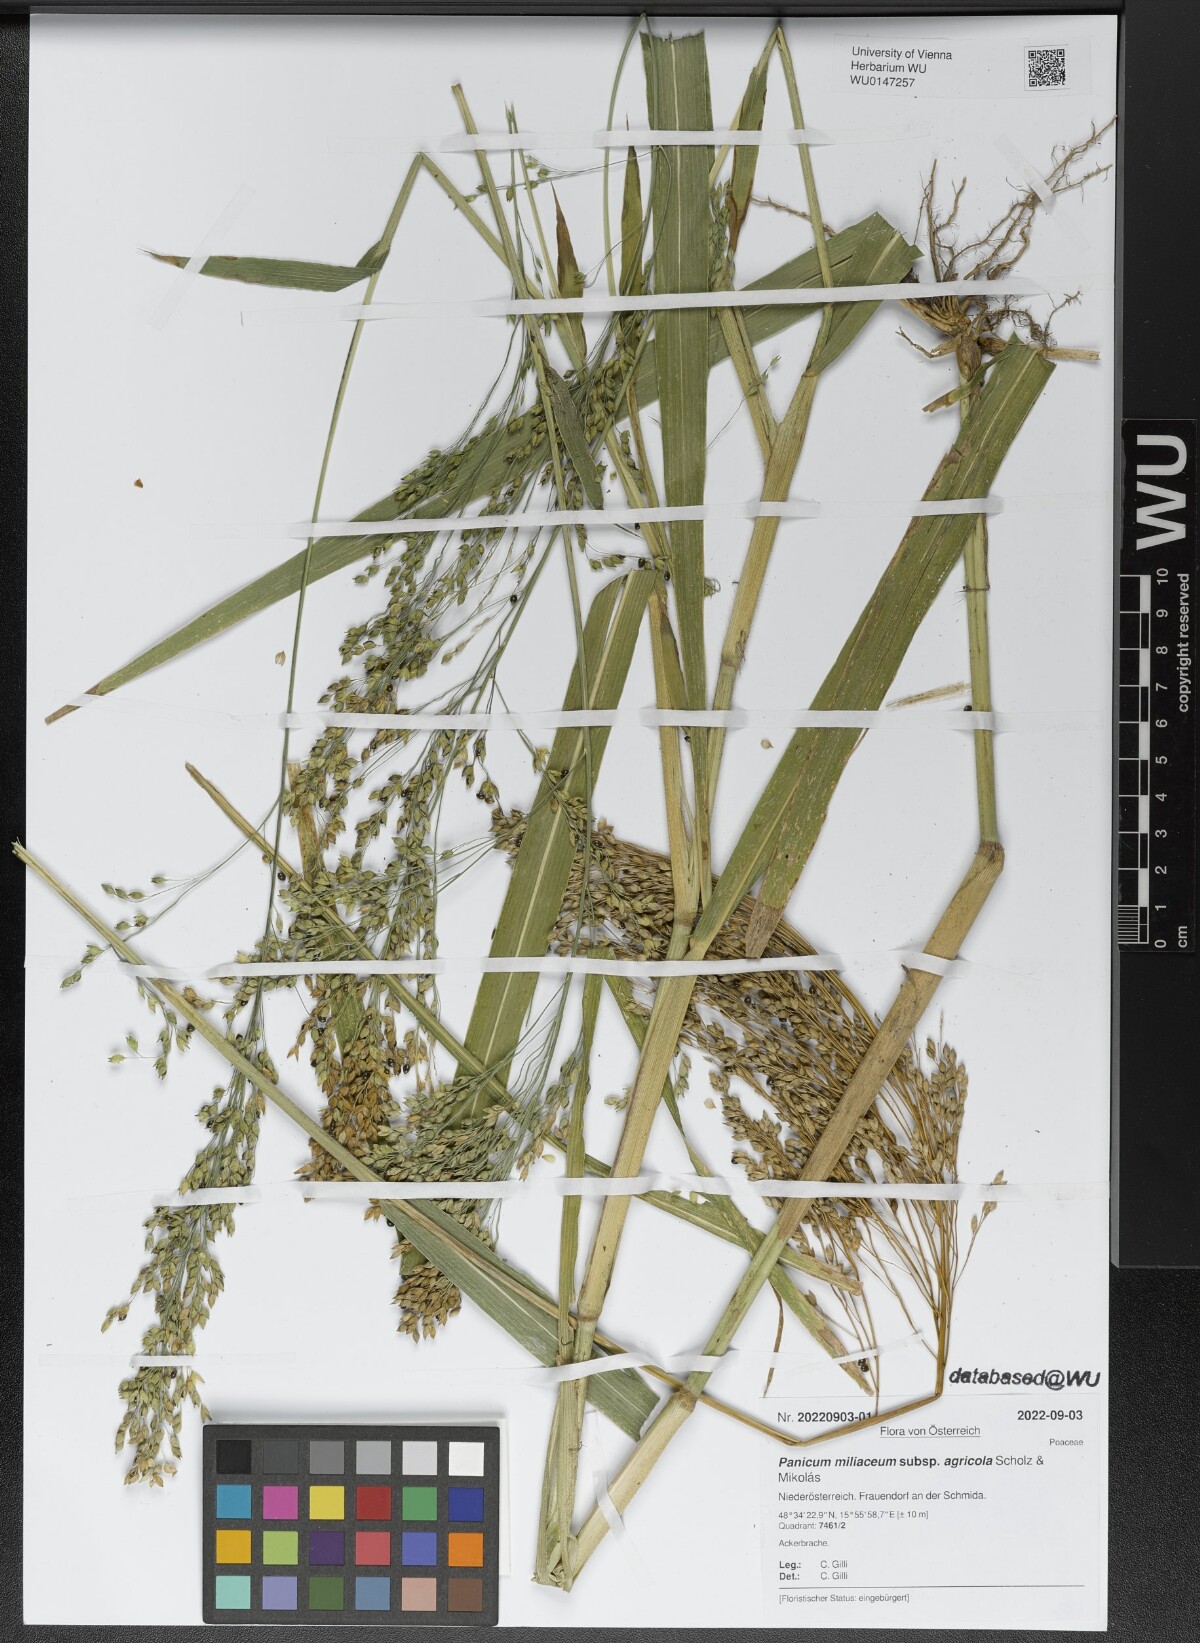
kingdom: Plantae
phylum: Tracheophyta
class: Liliopsida
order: Poales
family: Poaceae
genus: Panicum
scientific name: Panicum miliaceum
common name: Common millet
